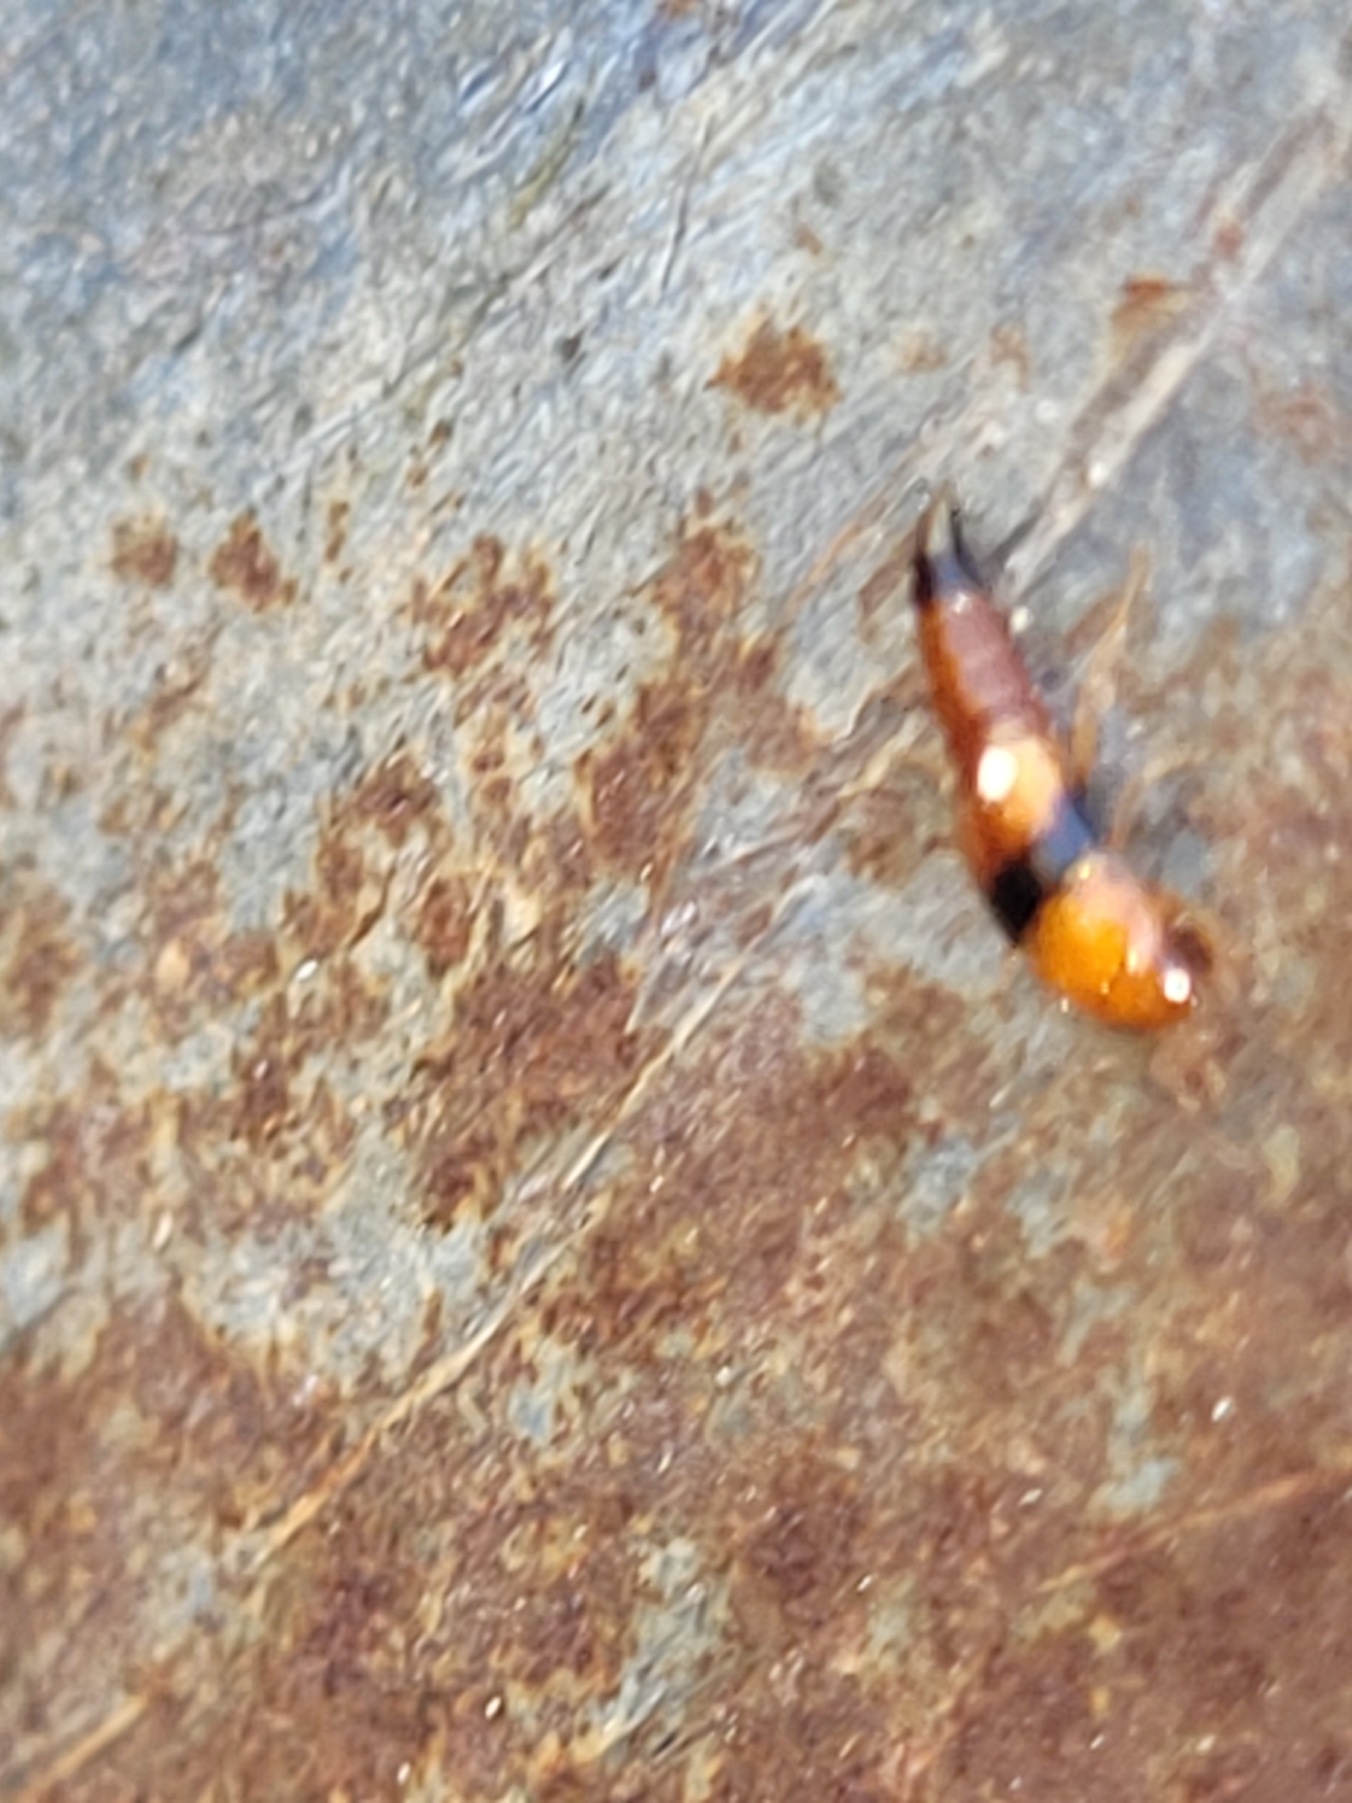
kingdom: Animalia
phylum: Arthropoda
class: Insecta
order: Coleoptera
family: Staphylinidae
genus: Tachyporus
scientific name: Tachyporus obtusus
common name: Gulhovedet agerrovbille
